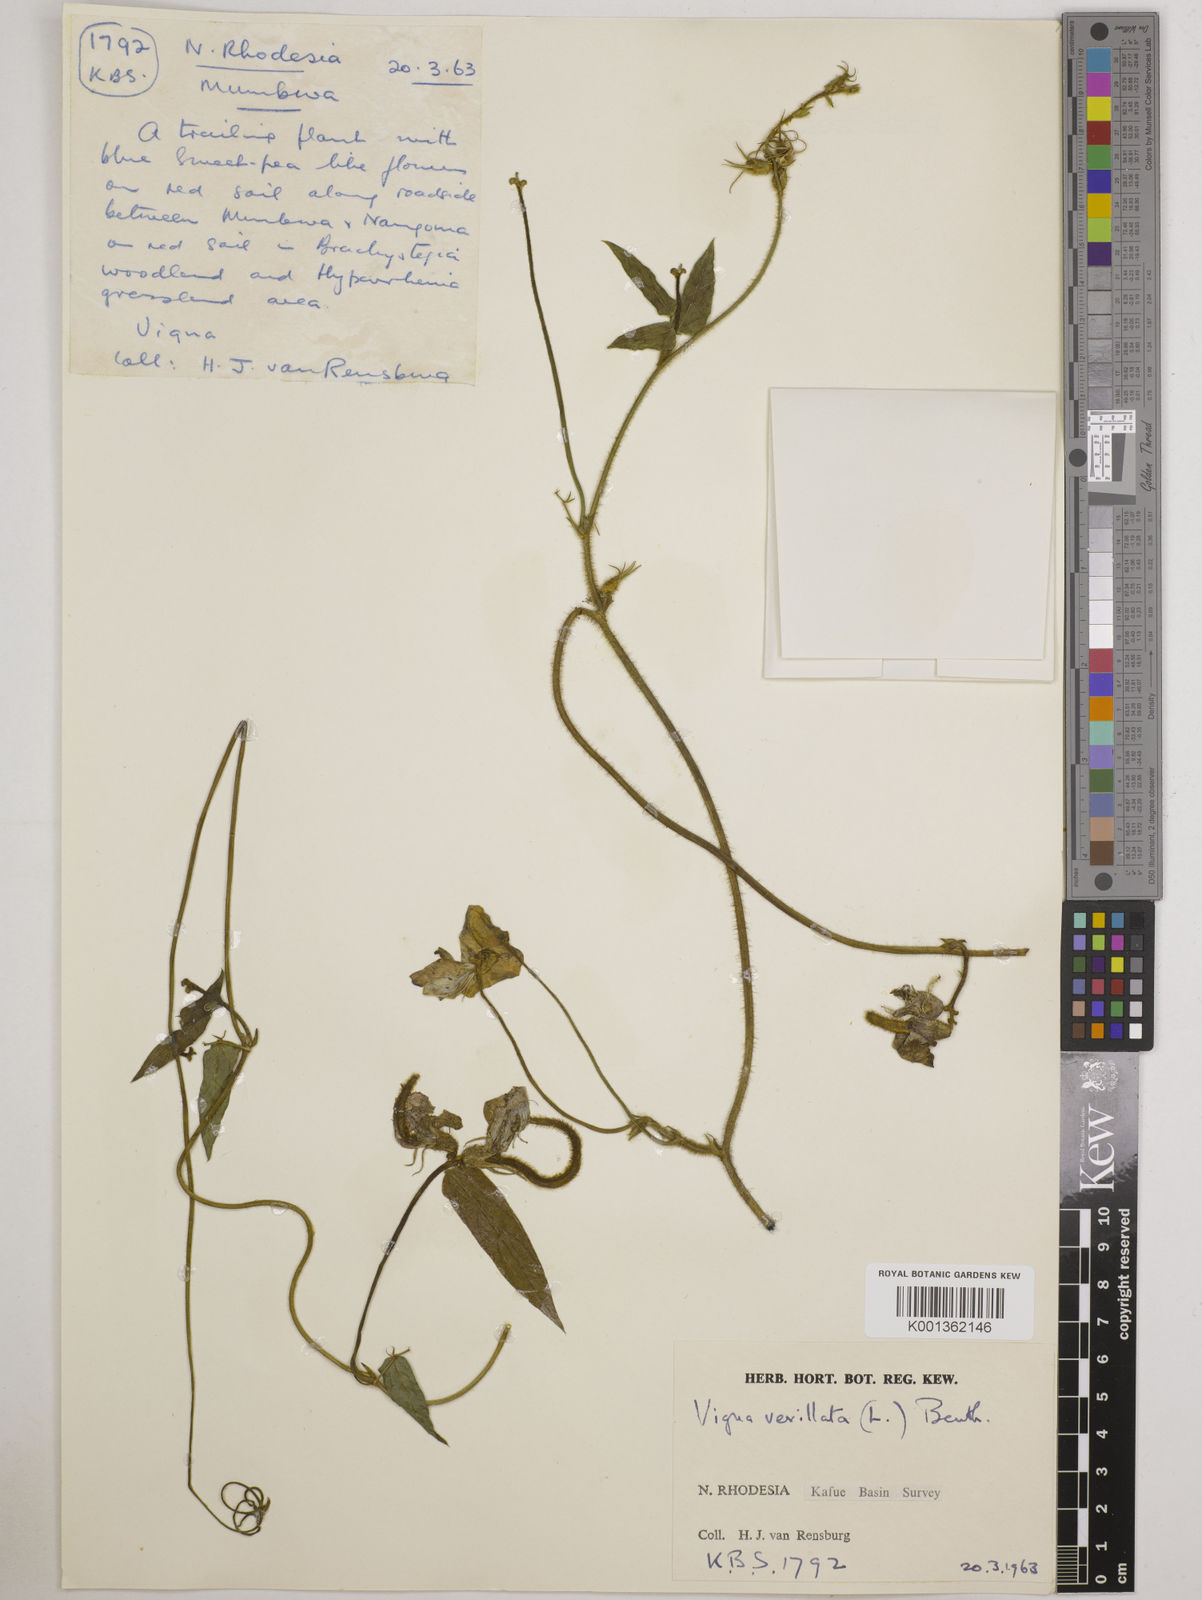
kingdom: Plantae
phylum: Tracheophyta
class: Magnoliopsida
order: Fabales
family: Fabaceae
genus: Vigna
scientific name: Vigna vexillata
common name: Zombi pea
